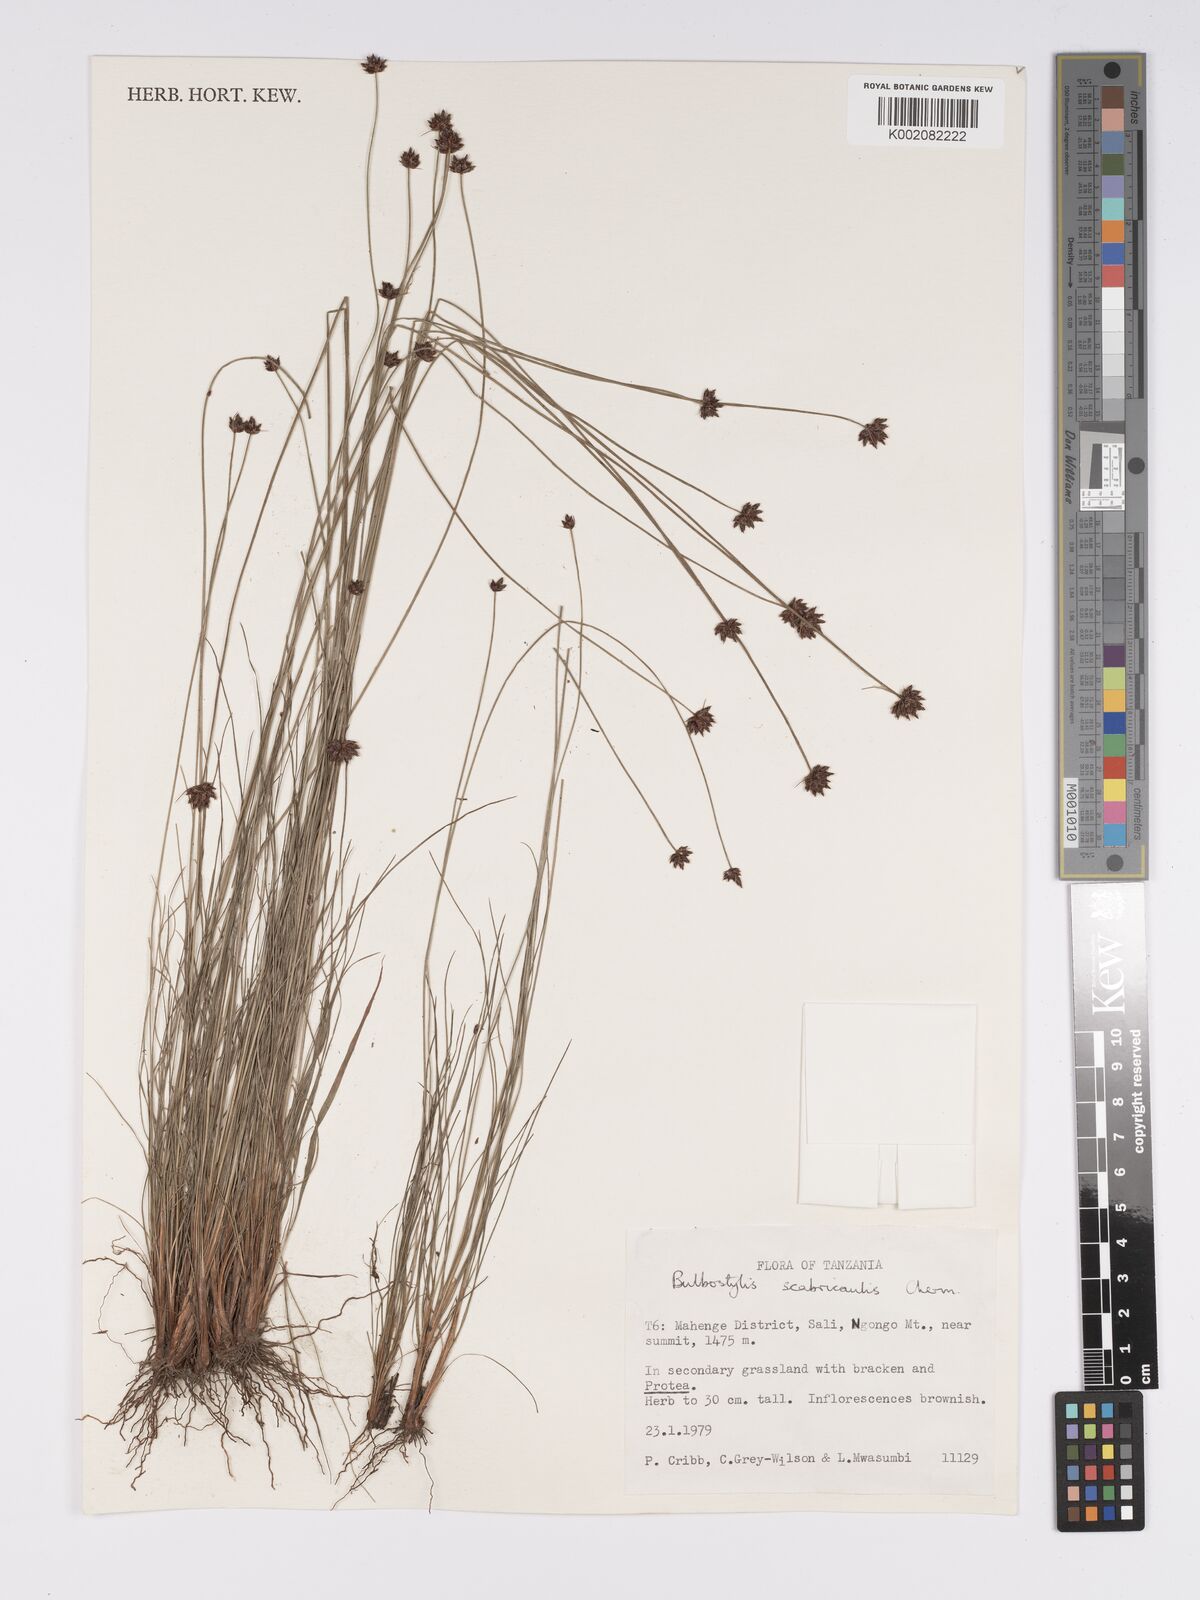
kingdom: Plantae
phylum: Tracheophyta
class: Liliopsida
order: Poales
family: Cyperaceae
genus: Bulbostylis
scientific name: Bulbostylis scabricaulis
